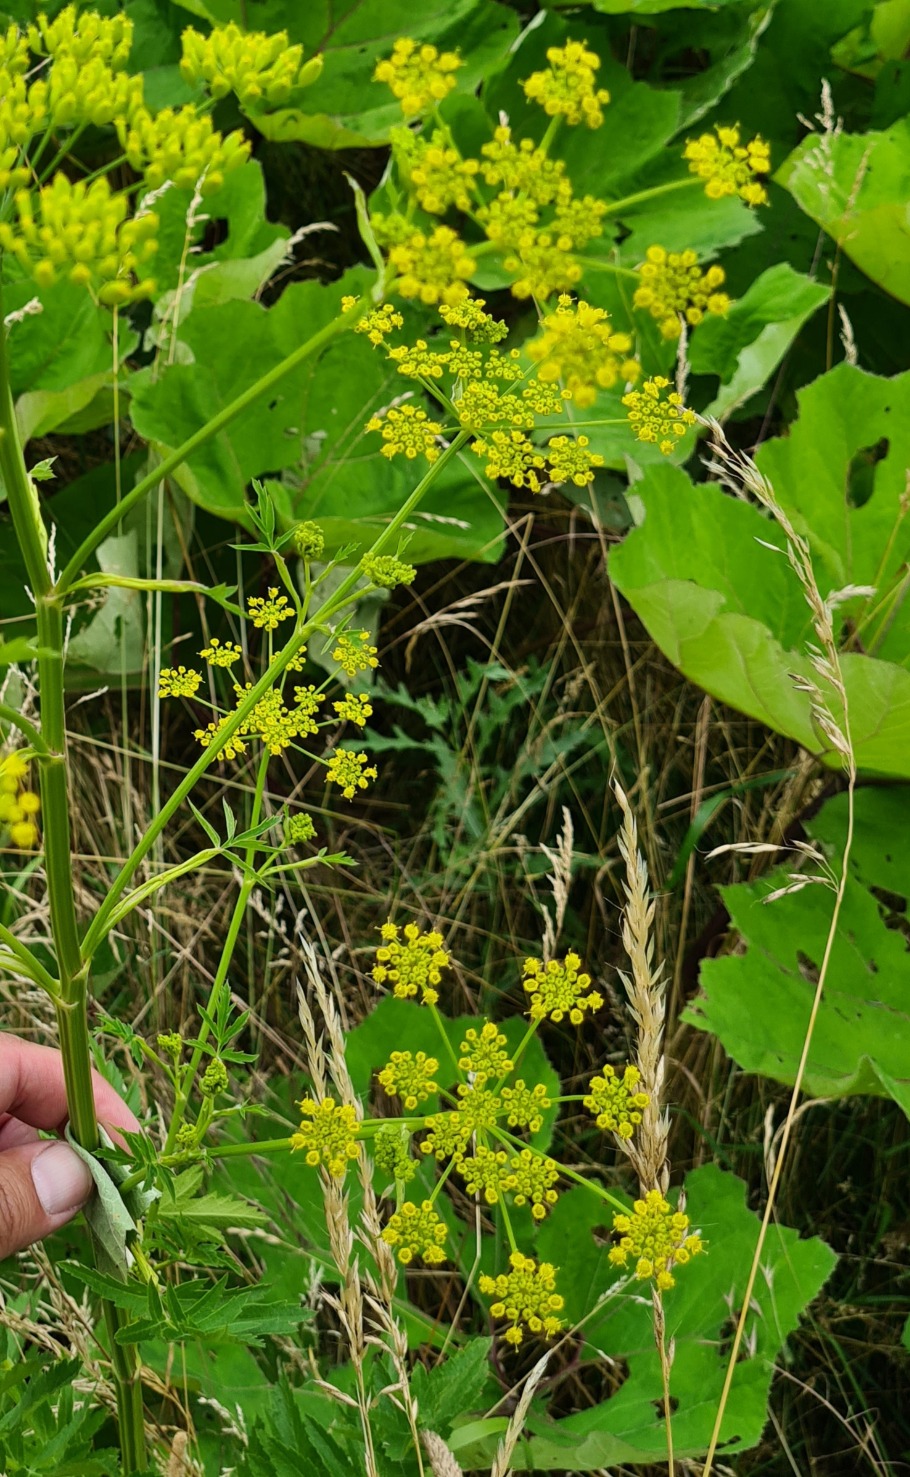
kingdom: Plantae
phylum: Tracheophyta
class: Magnoliopsida
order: Apiales
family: Apiaceae
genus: Pastinaca
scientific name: Pastinaca sativa
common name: Pastinak
